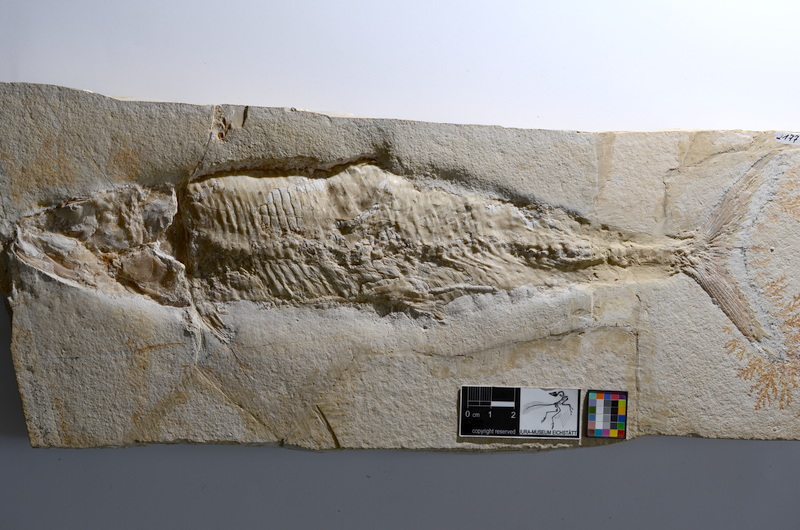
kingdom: Animalia
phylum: Chordata
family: Ankylophoridae
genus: Siemensichthys
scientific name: Siemensichthys macrocephalus
